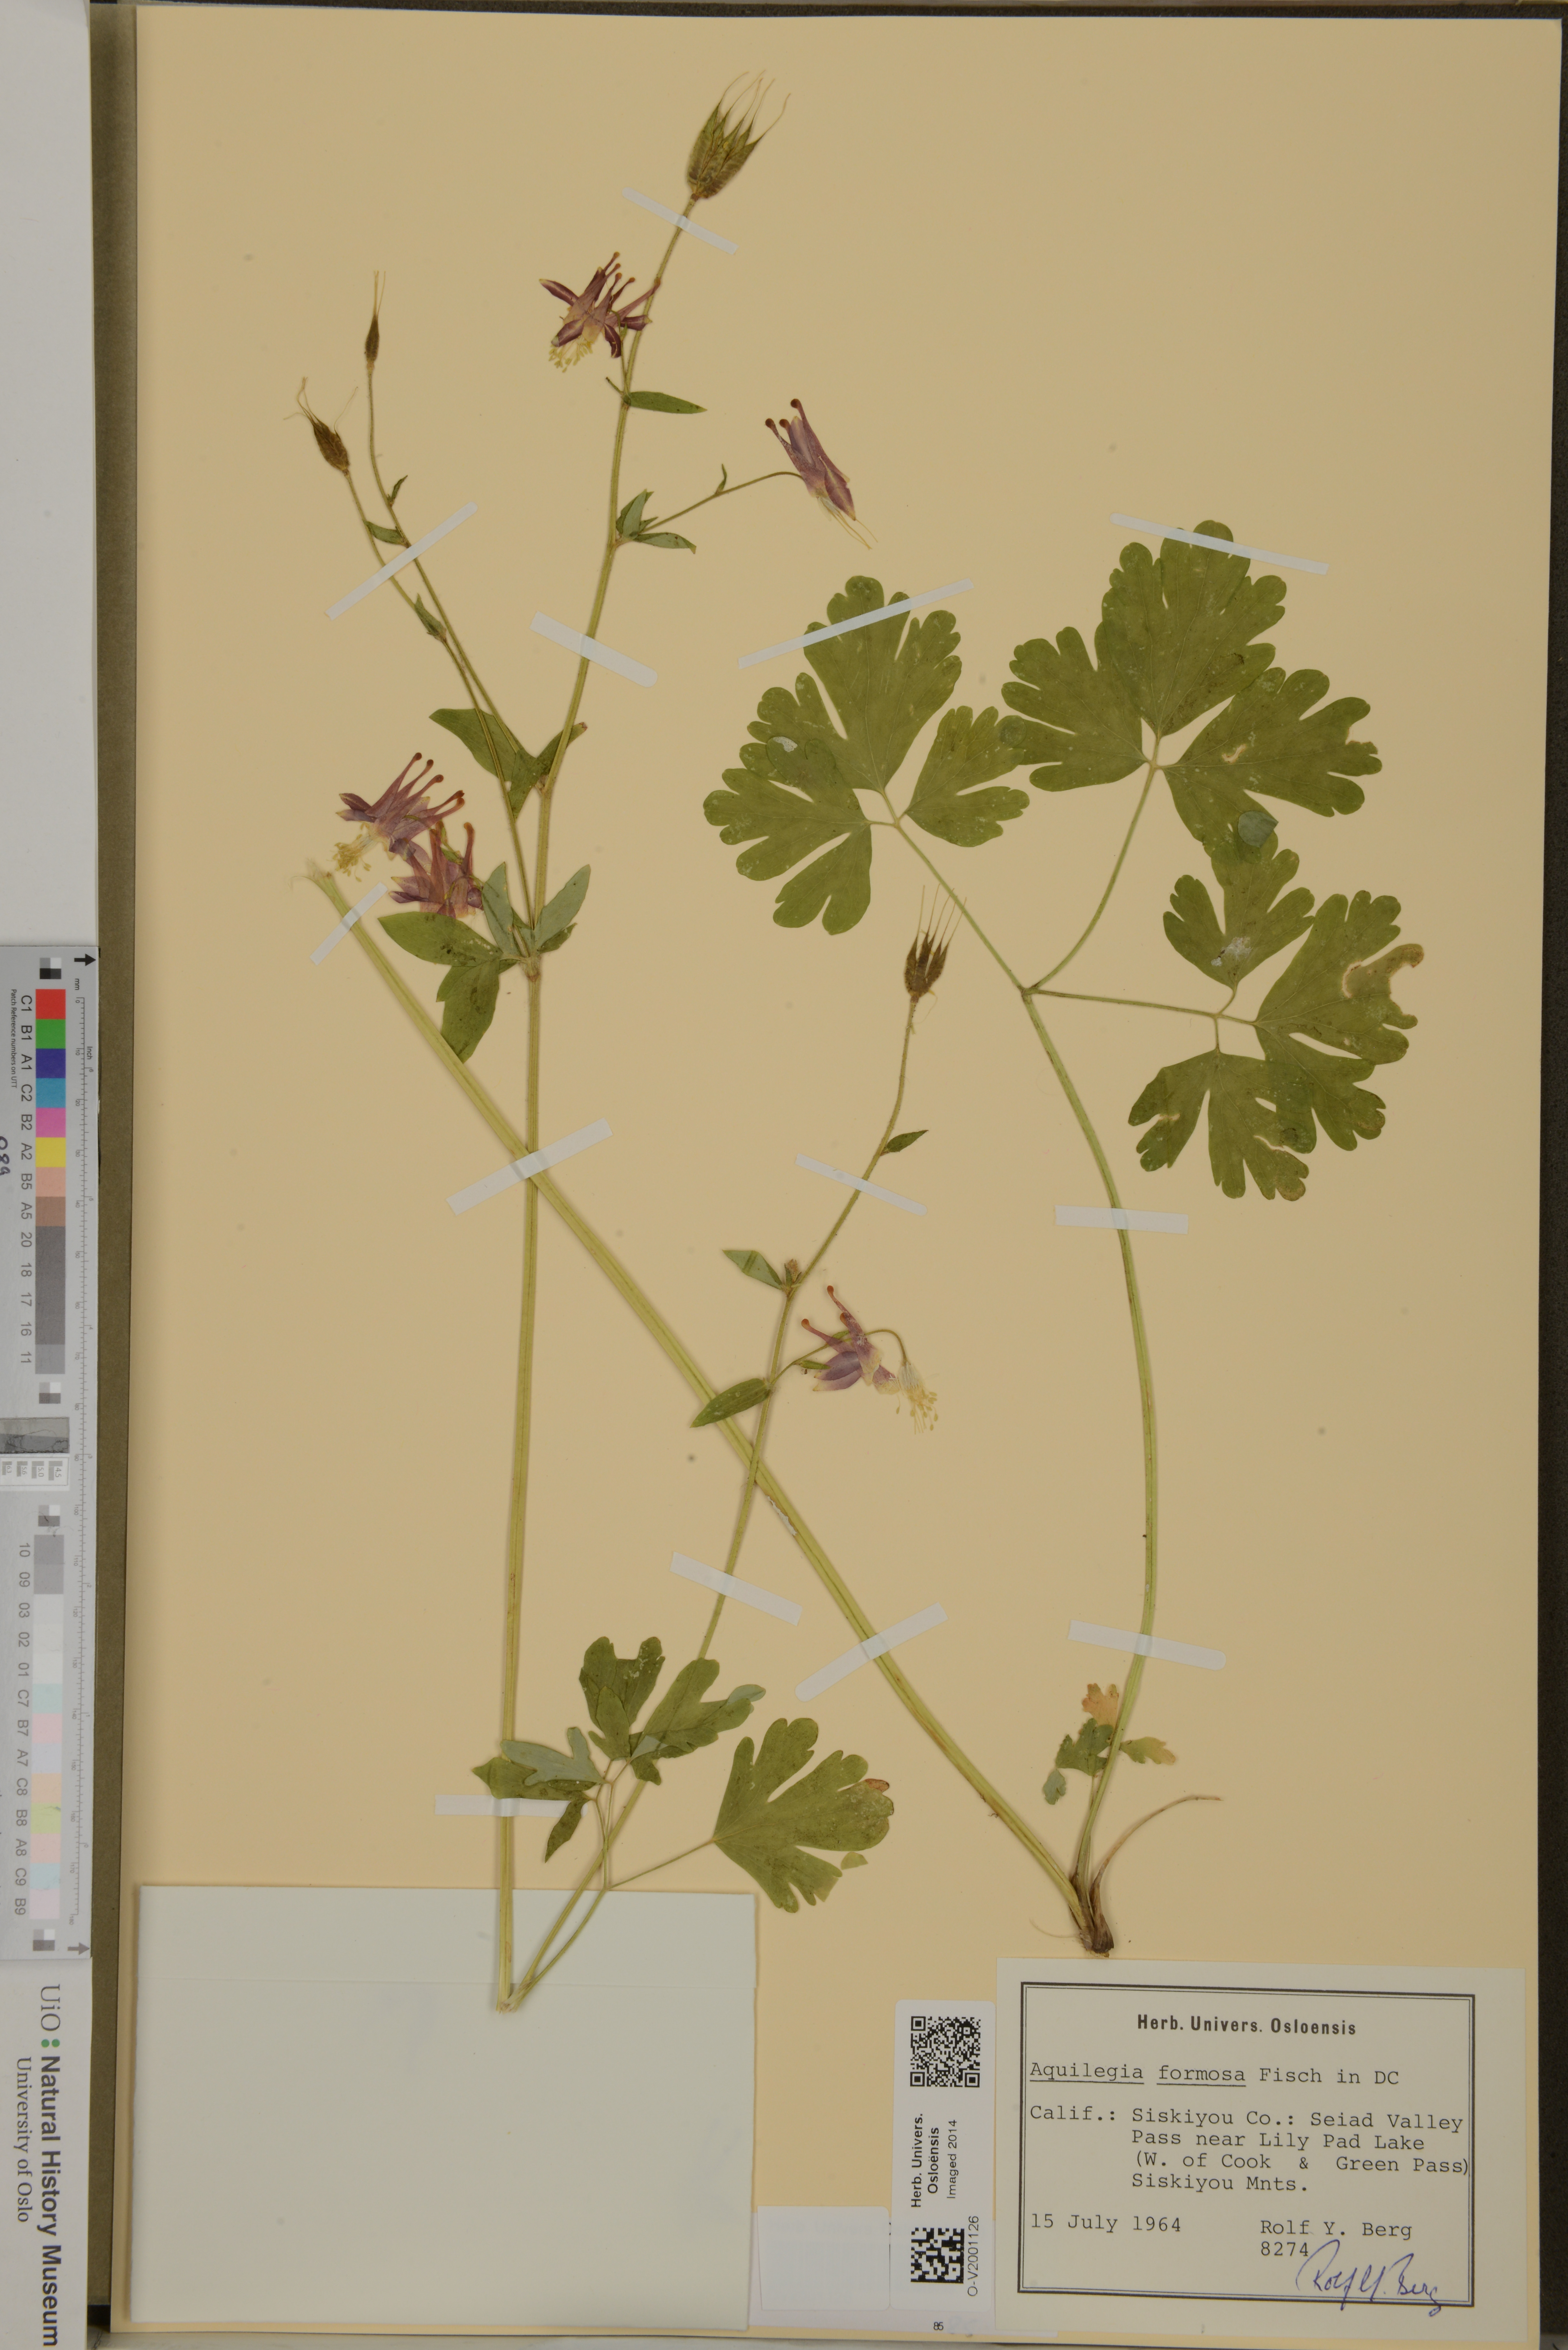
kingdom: Plantae
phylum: Tracheophyta
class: Magnoliopsida
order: Ranunculales
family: Ranunculaceae
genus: Aquilegia
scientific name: Aquilegia formosa
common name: Sitka columbine
